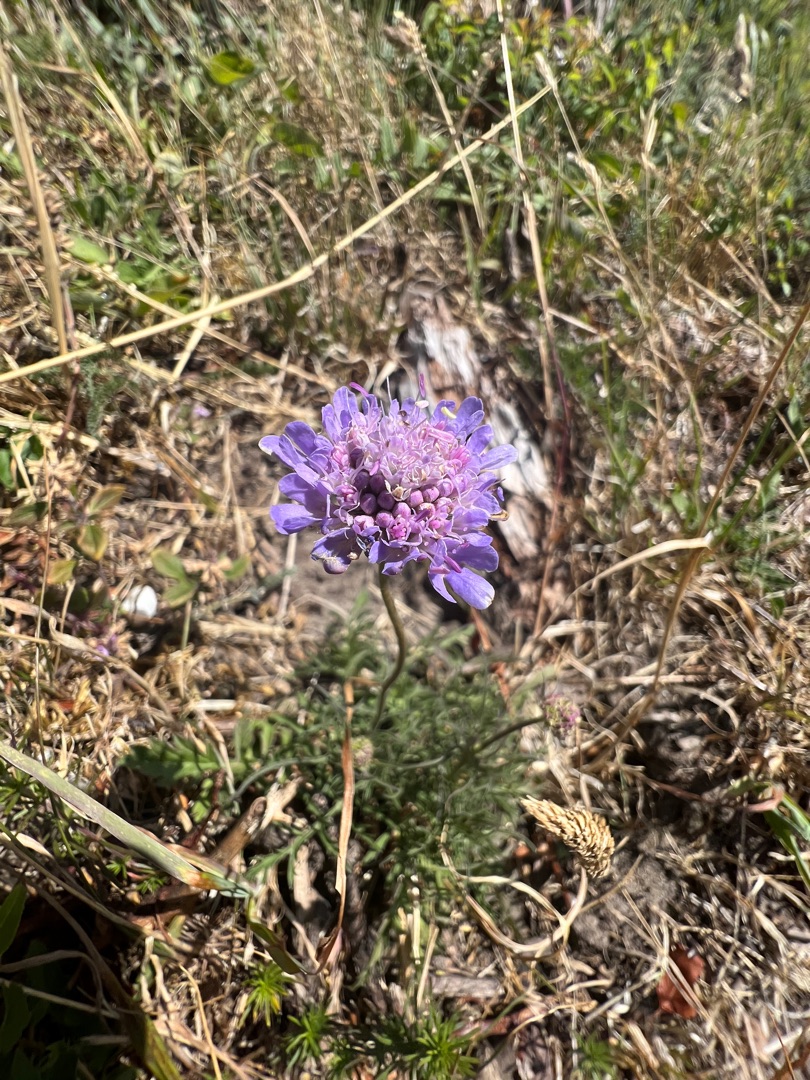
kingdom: Plantae
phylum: Tracheophyta
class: Magnoliopsida
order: Dipsacales
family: Caprifoliaceae
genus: Scabiosa
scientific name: Scabiosa columbaria
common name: Due-skabiose
